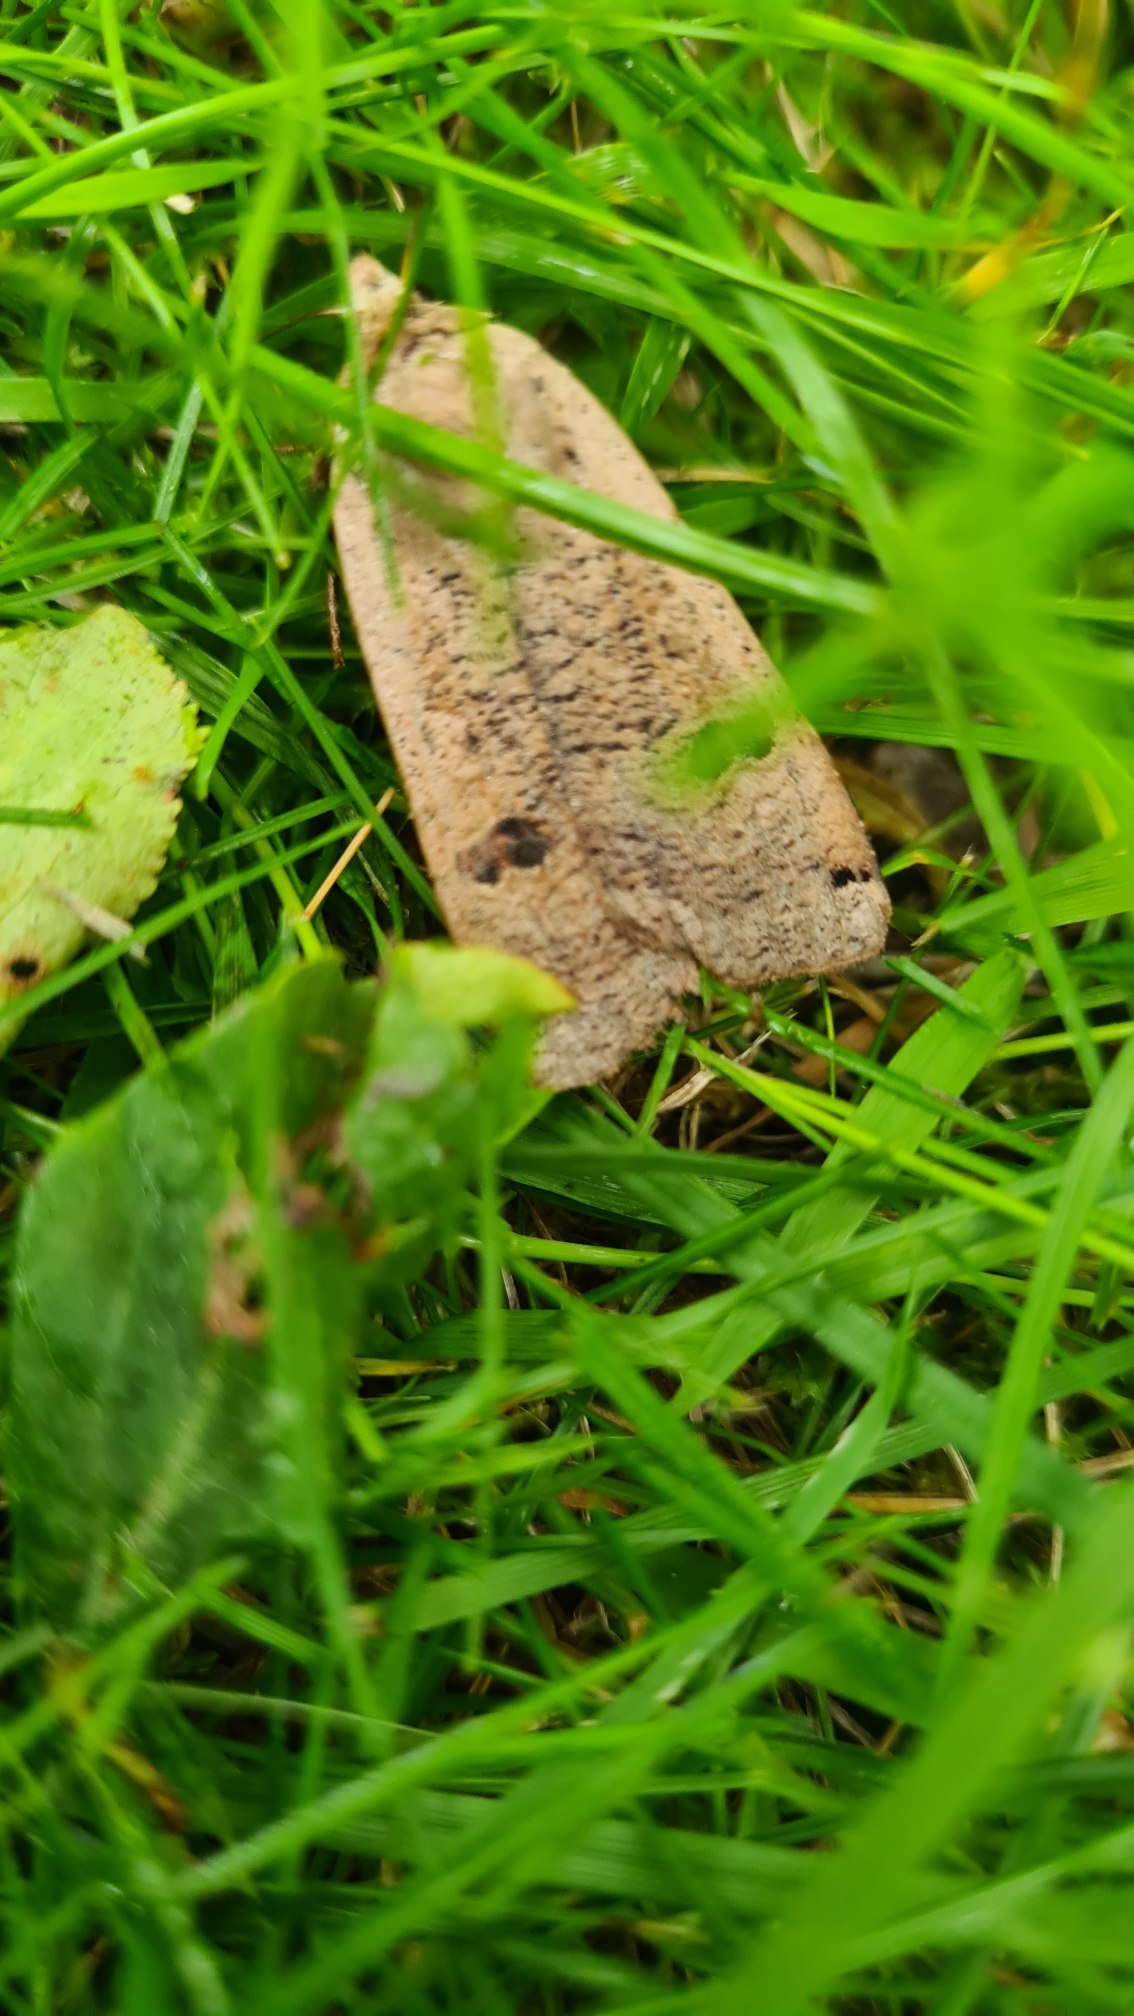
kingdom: Animalia
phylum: Arthropoda
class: Insecta
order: Lepidoptera
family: Noctuidae
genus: Noctua
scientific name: Noctua pronuba
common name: Stor smutugle
